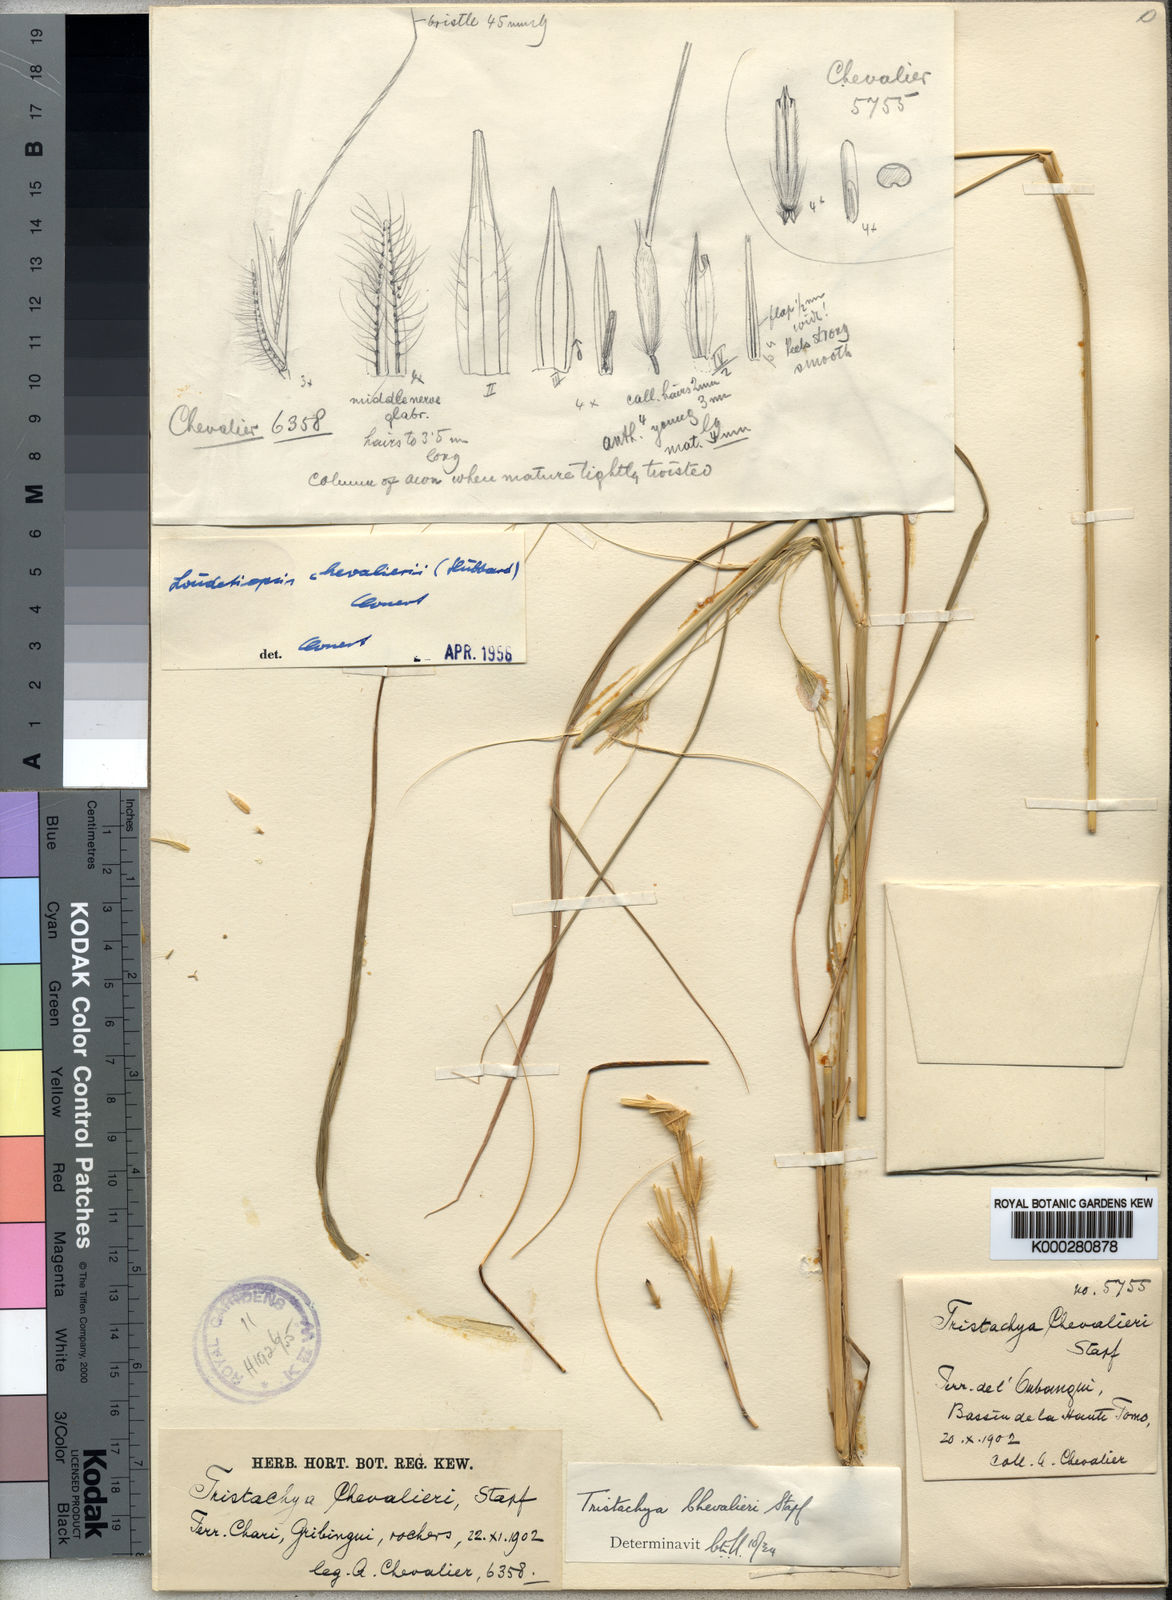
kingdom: Plantae
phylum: Tracheophyta
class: Liliopsida
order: Poales
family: Poaceae
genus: Loudetiopsis
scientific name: Loudetiopsis chevalieri
